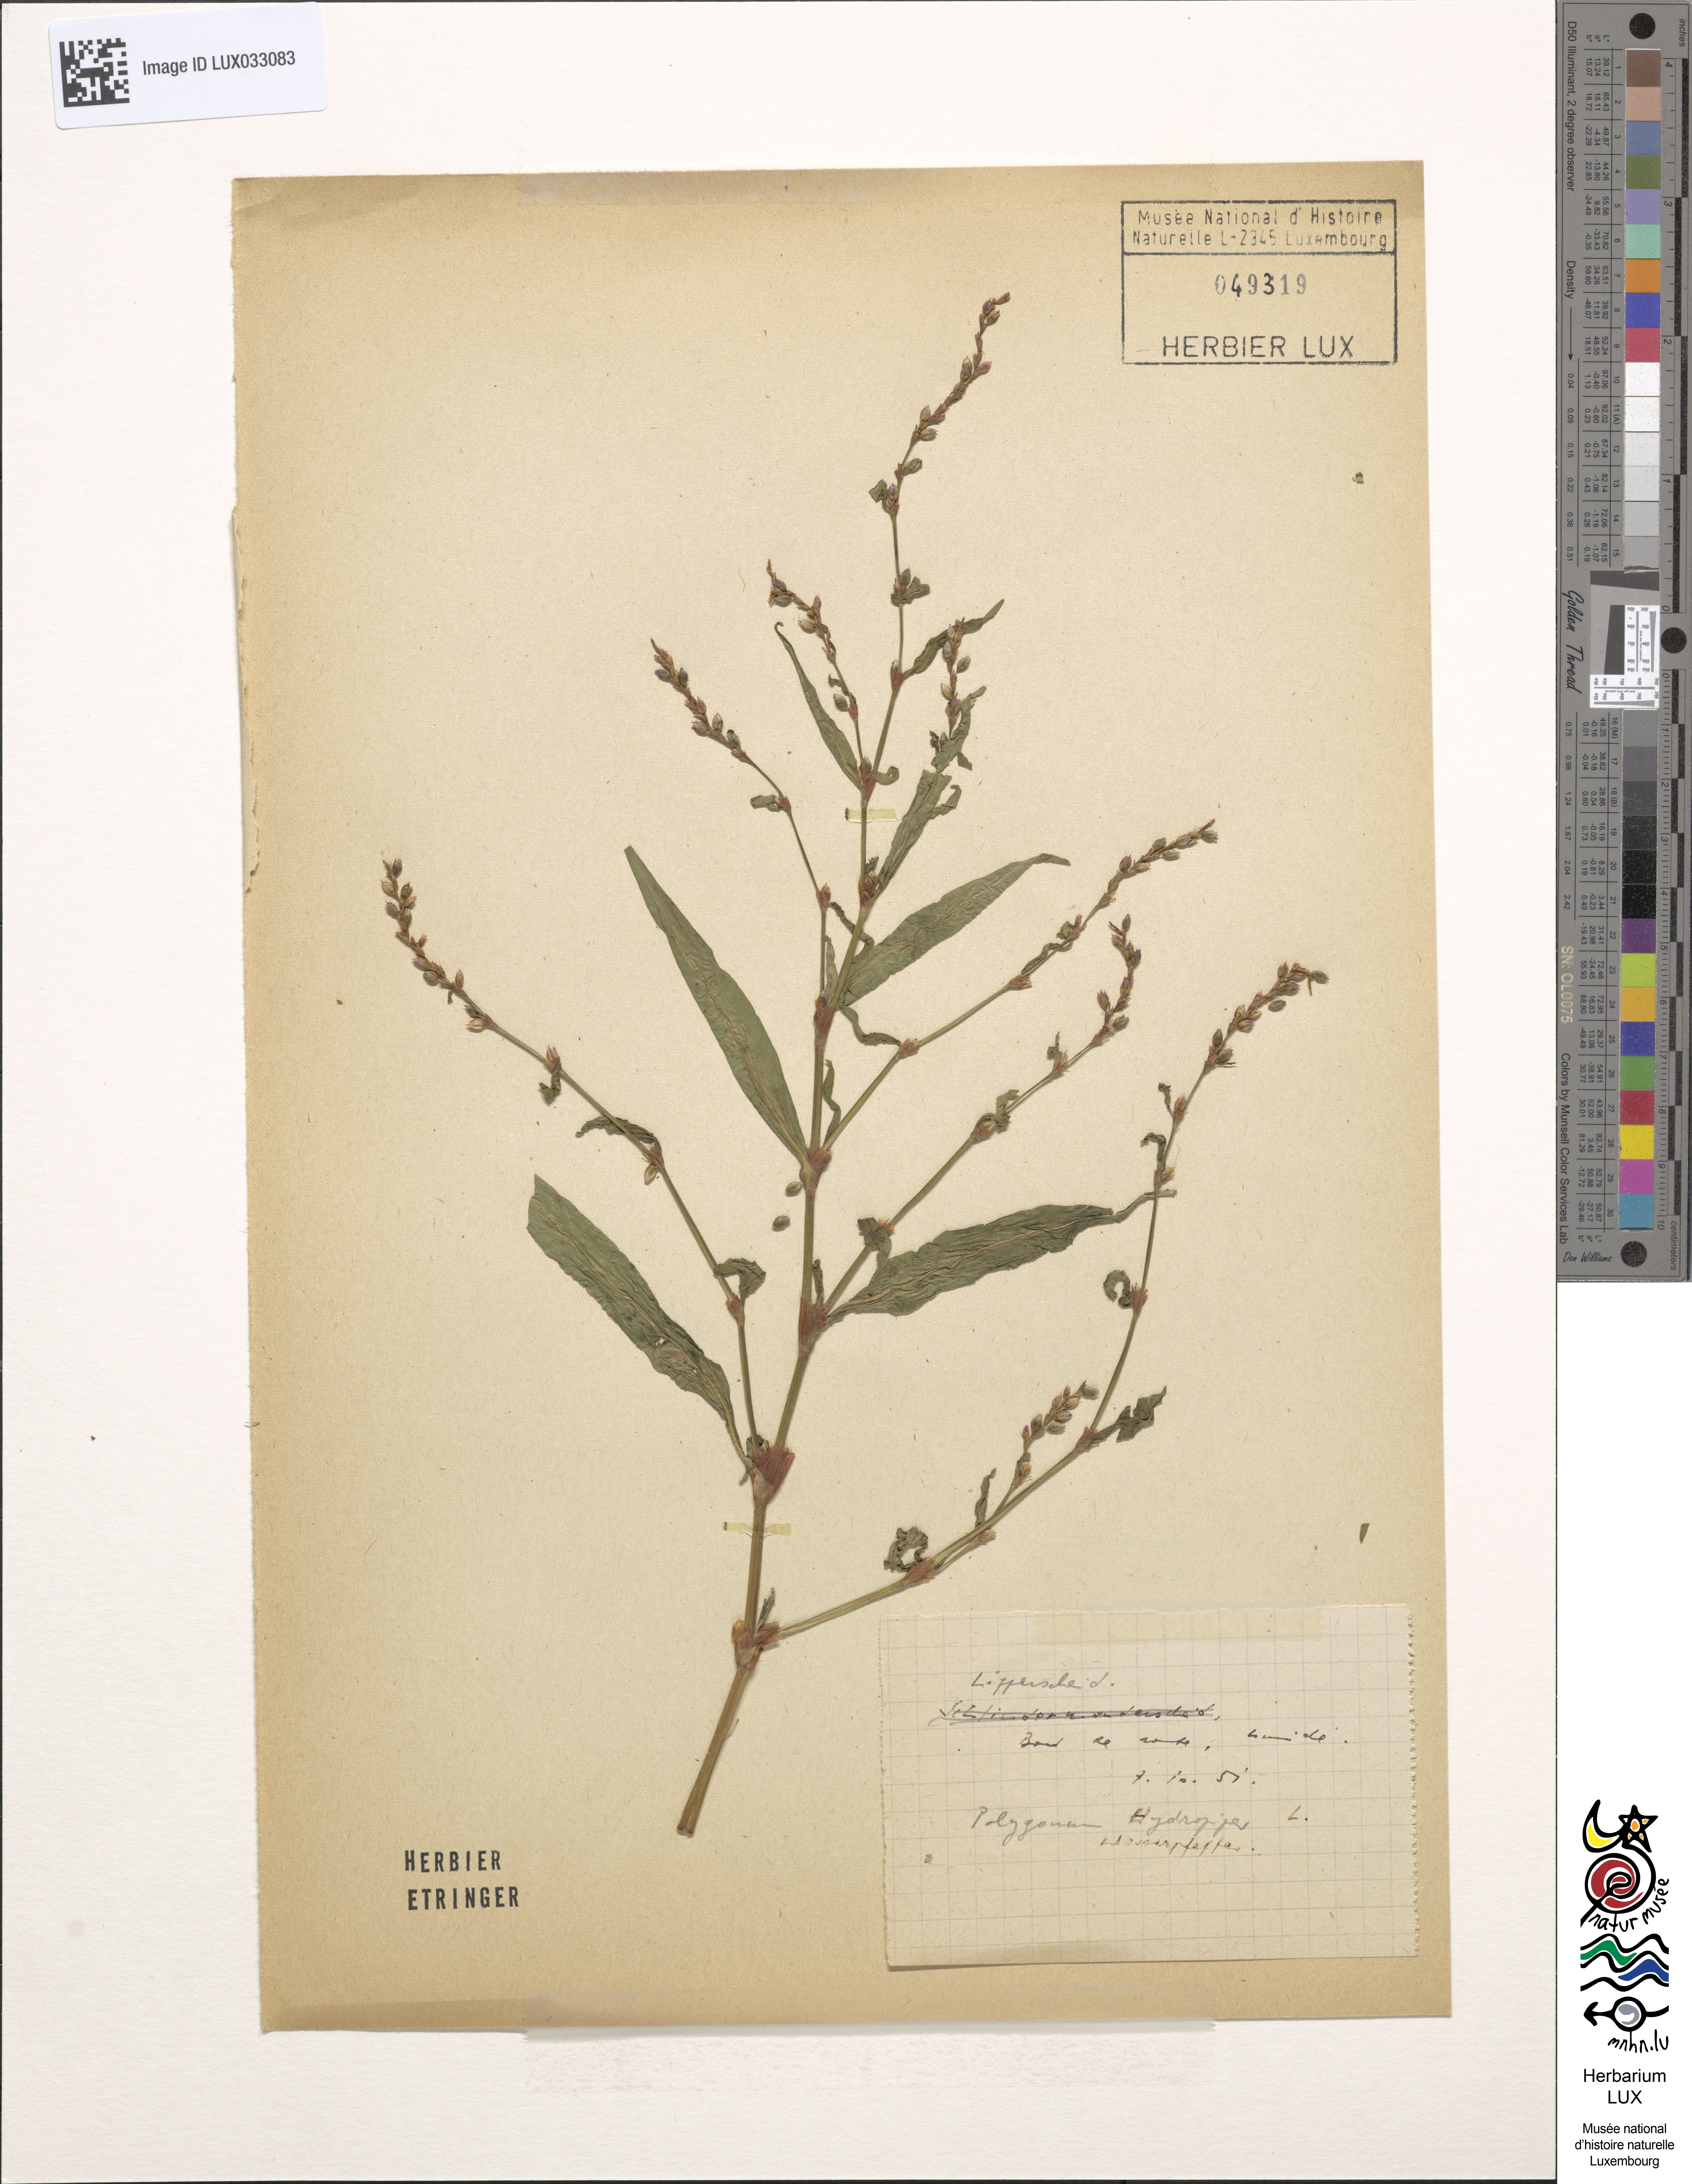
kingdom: Plantae
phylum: Tracheophyta
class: Magnoliopsida
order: Caryophyllales
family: Polygonaceae
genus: Persicaria
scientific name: Persicaria hydropiper
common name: Water-pepper
